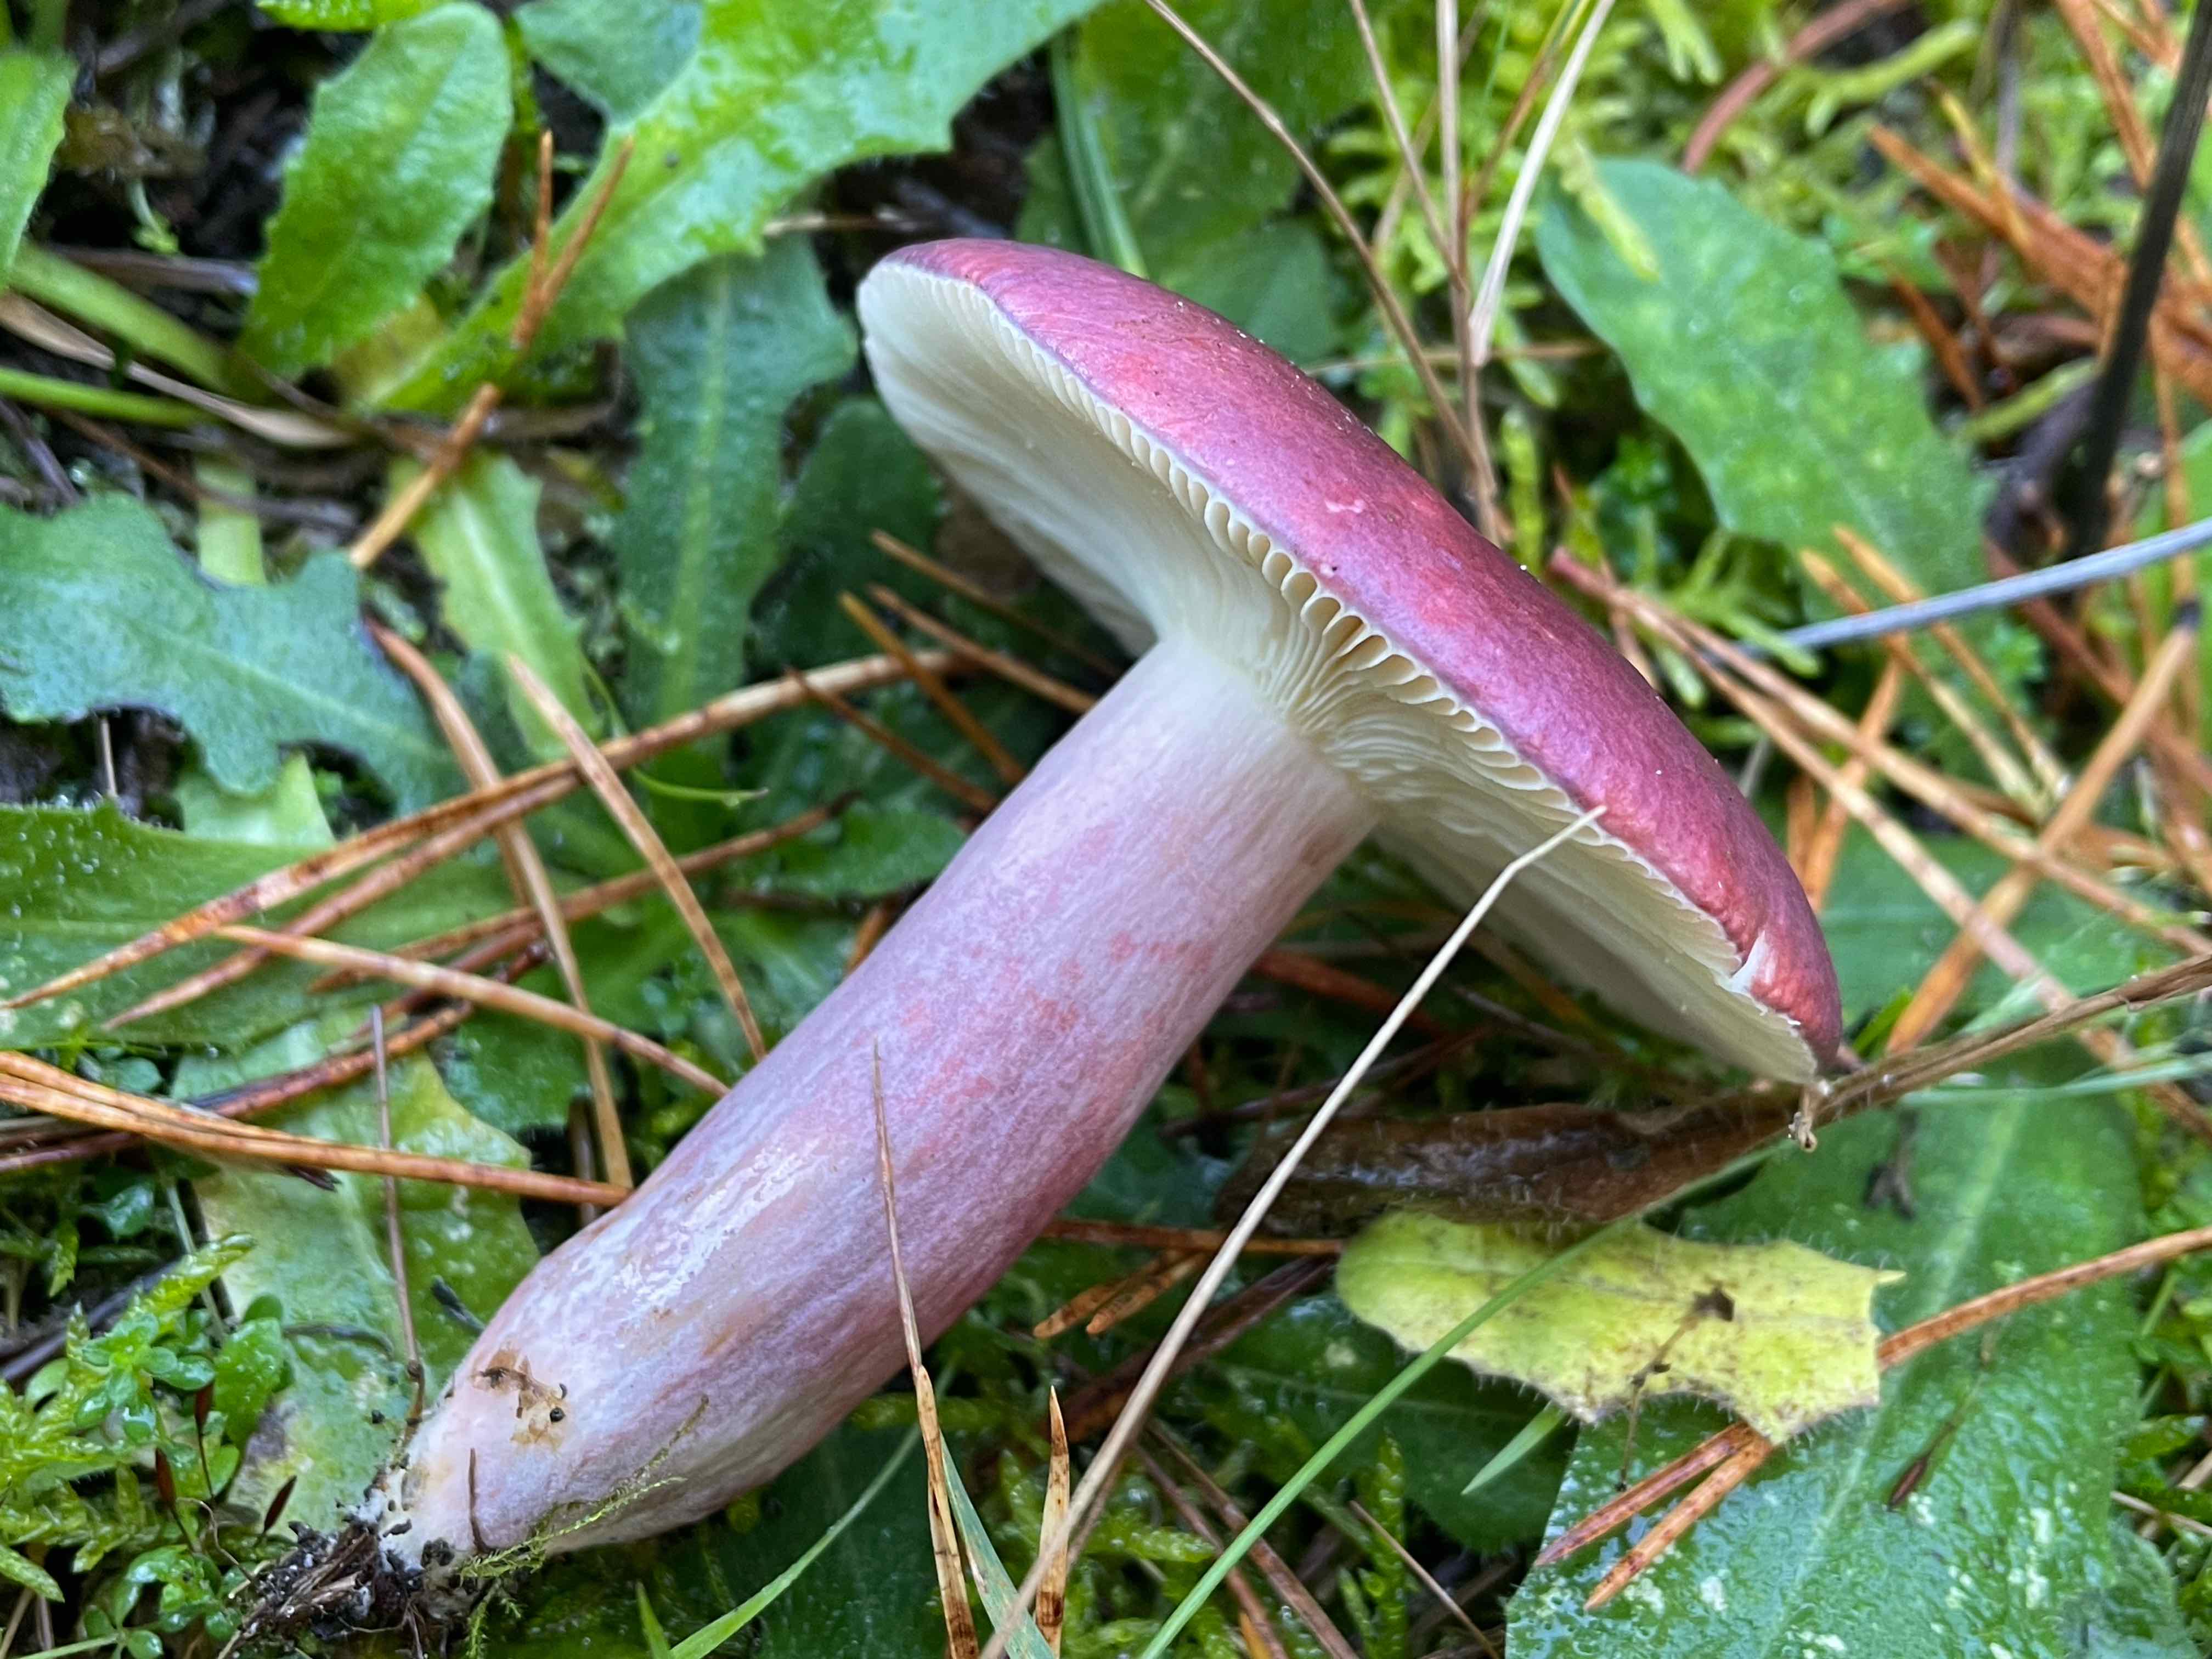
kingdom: Fungi
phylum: Basidiomycota
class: Agaricomycetes
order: Russulales
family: Russulaceae
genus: Russula
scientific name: Russula sardonia
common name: citronbladet skørhat
